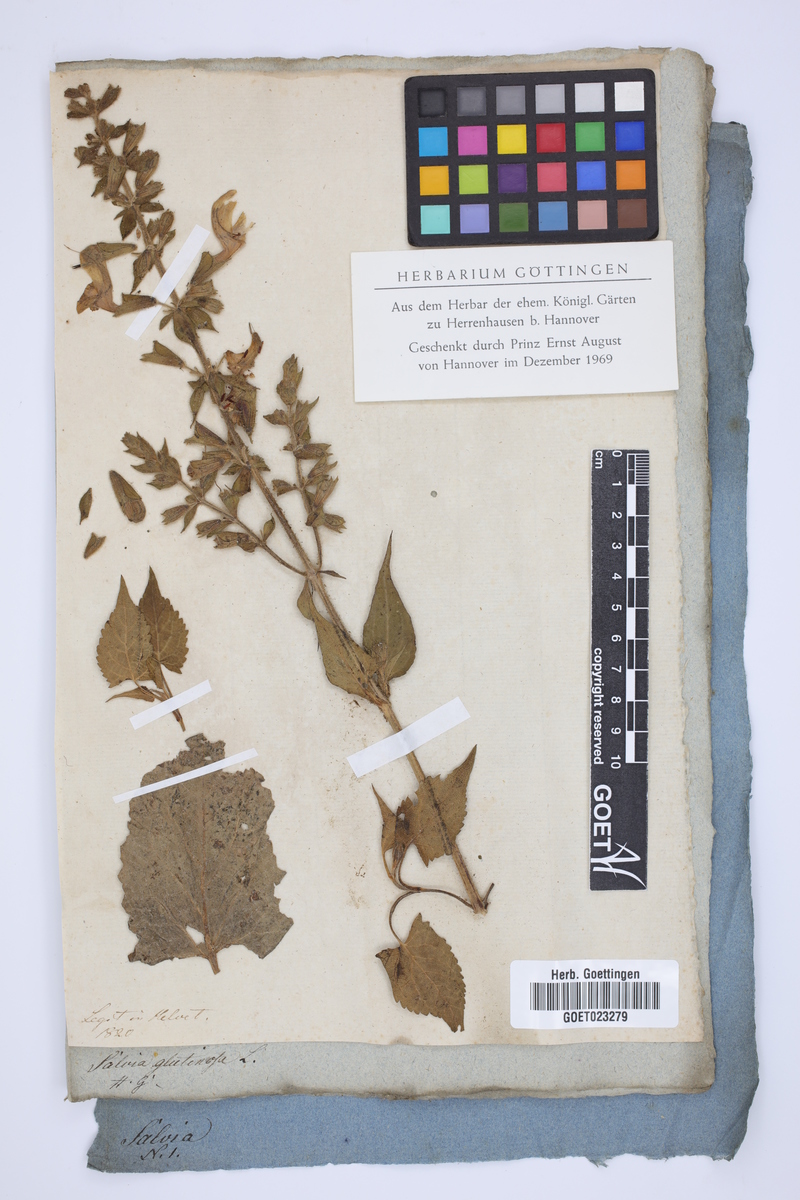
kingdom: Plantae
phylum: Tracheophyta
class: Magnoliopsida
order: Lamiales
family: Lamiaceae
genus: Salvia
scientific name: Salvia glutinosa
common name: Sticky clary
